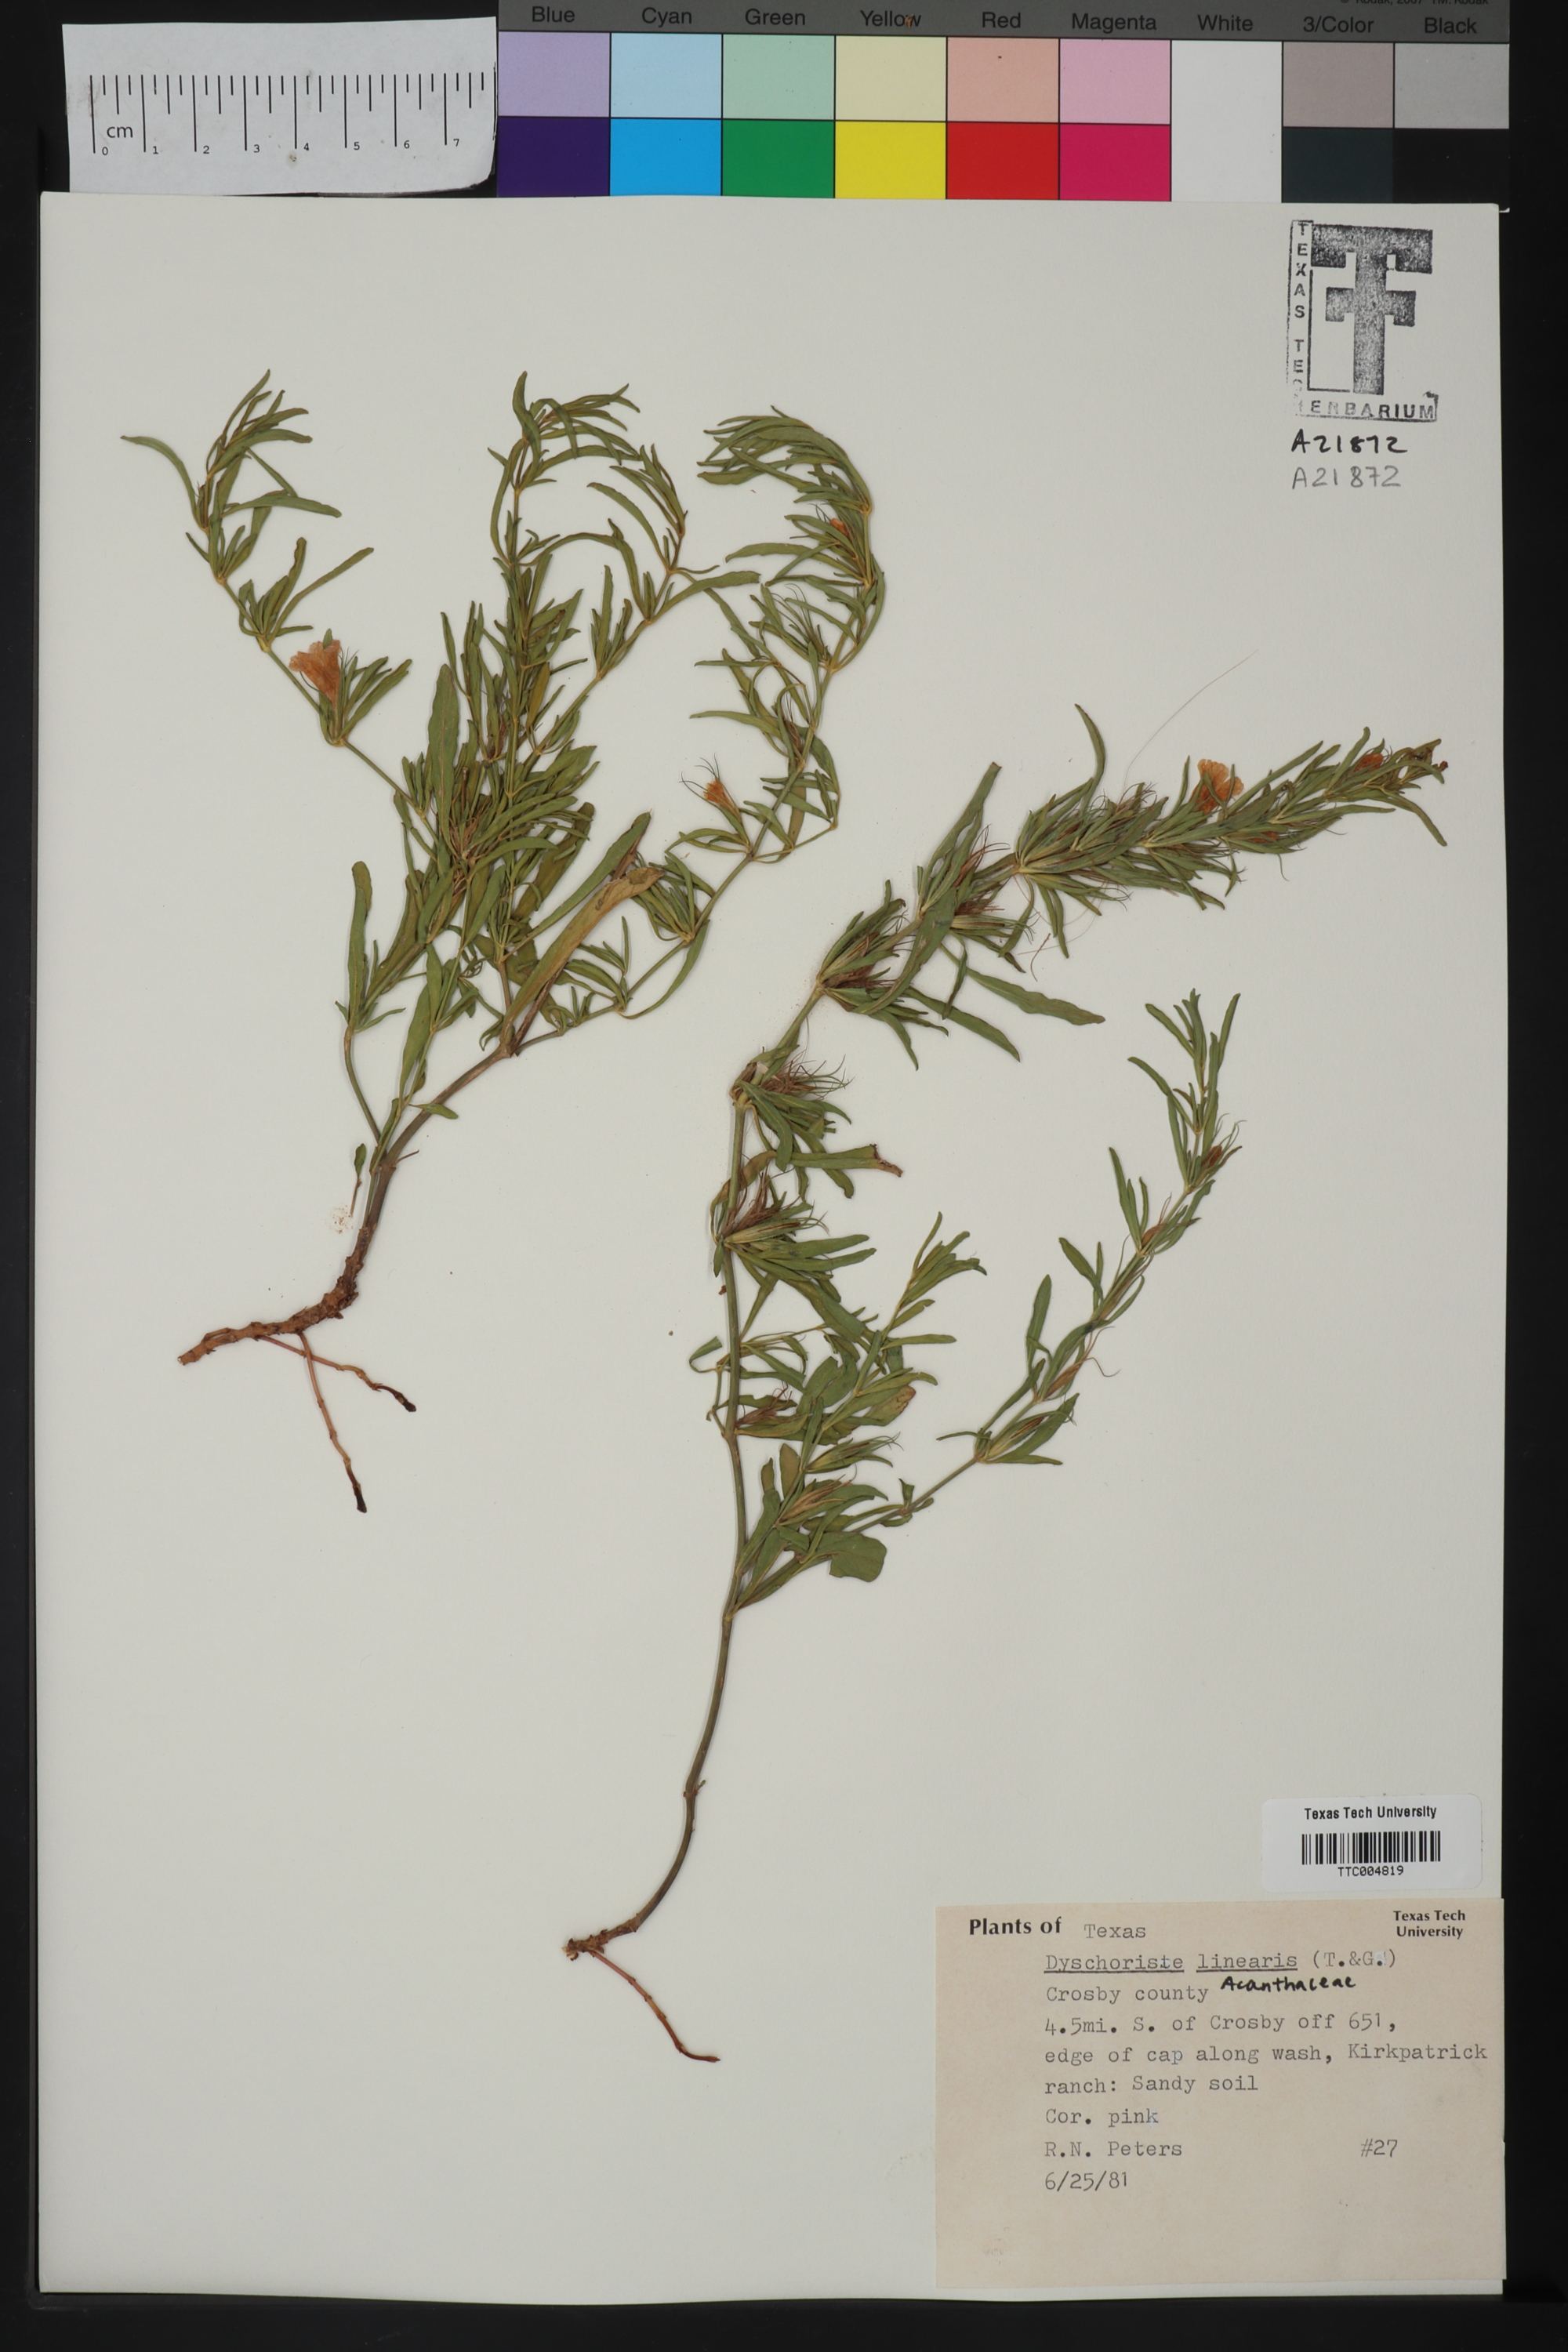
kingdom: Plantae
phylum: Tracheophyta
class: Magnoliopsida
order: Lamiales
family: Acanthaceae
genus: Dyschoriste
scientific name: Dyschoriste linearis
